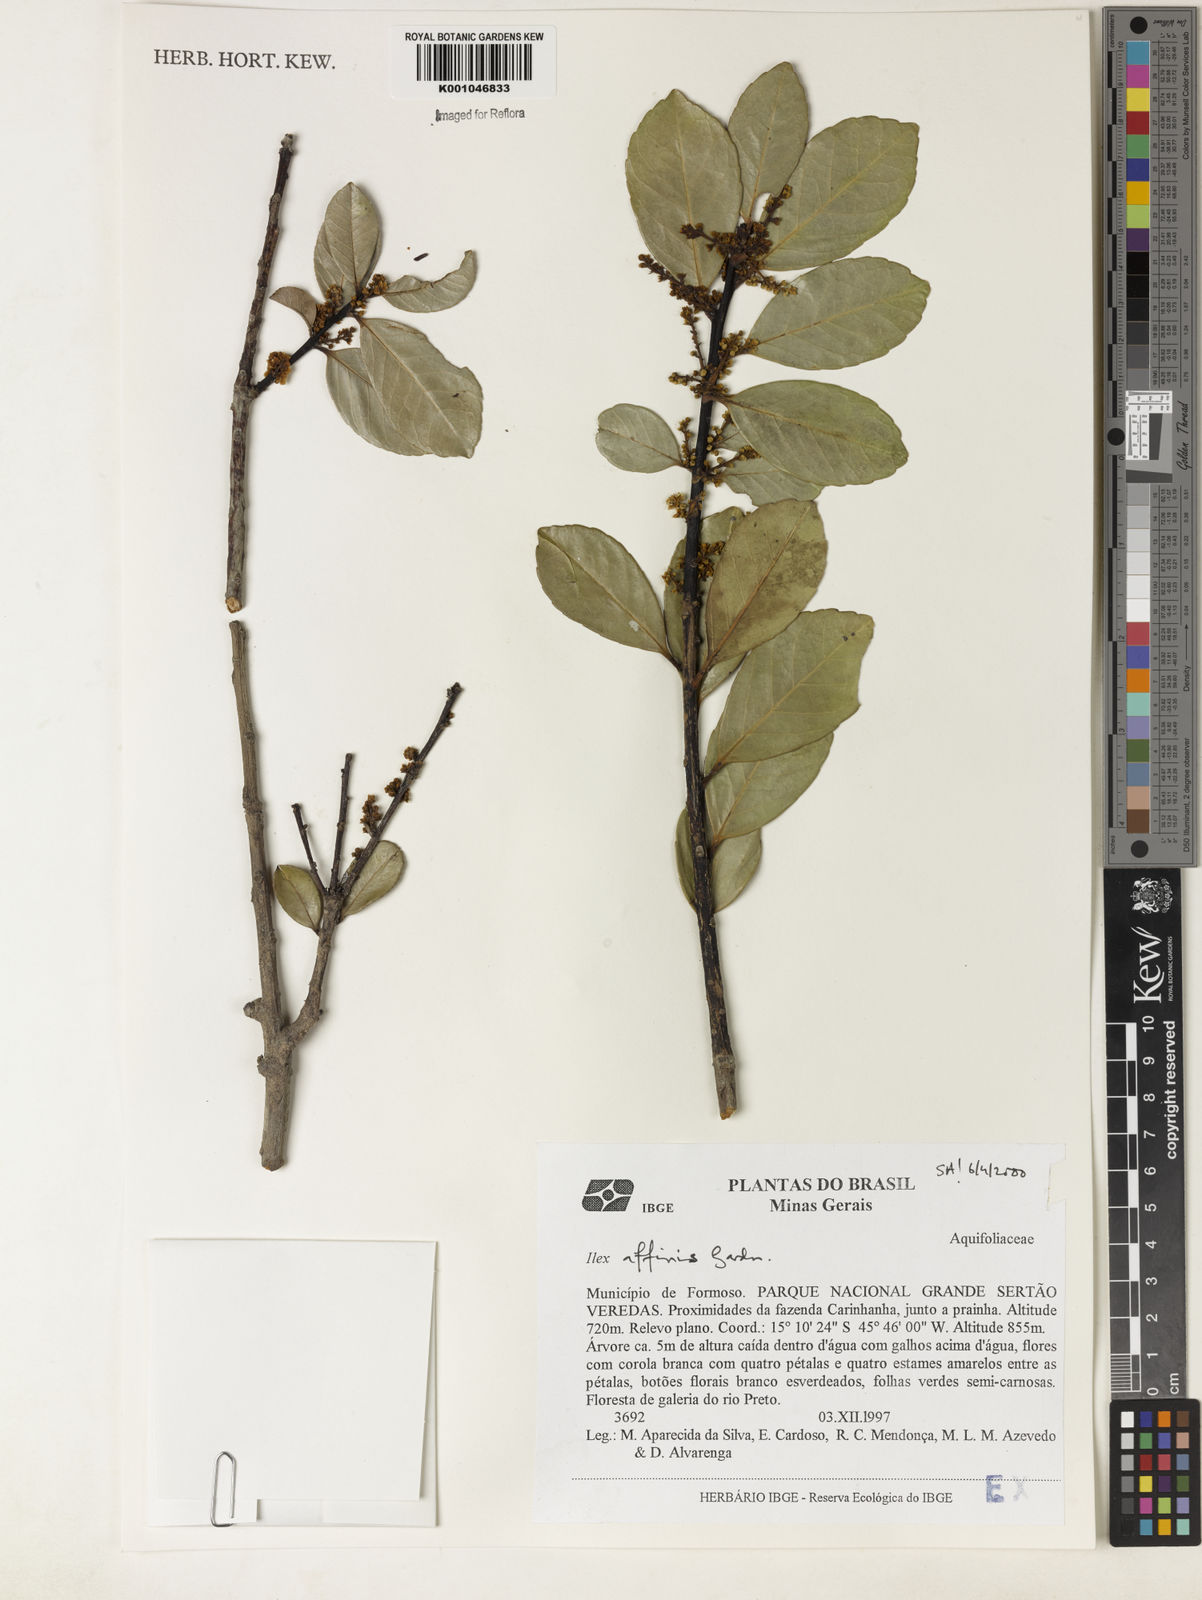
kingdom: Plantae
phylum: Tracheophyta
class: Magnoliopsida
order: Aquifoliales
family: Aquifoliaceae
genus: Ilex
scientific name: Ilex affinis
